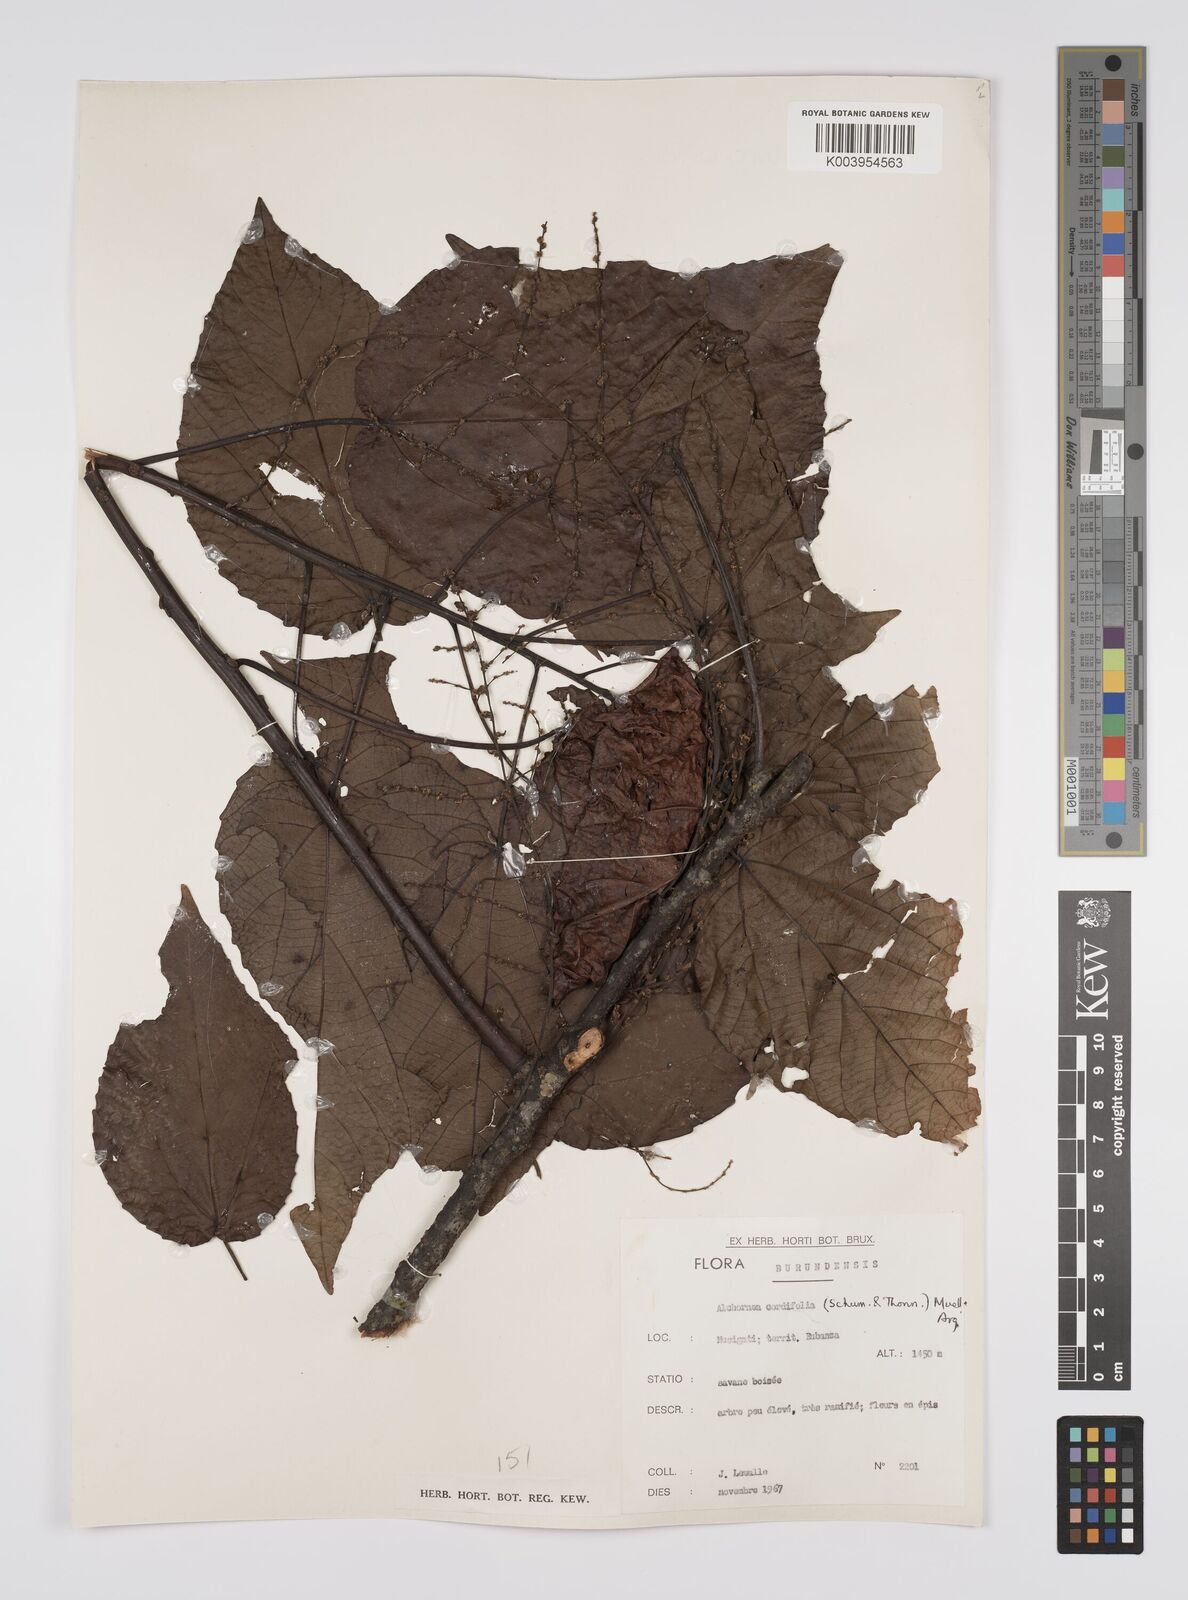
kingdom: Plantae
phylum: Tracheophyta
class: Magnoliopsida
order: Malpighiales
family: Euphorbiaceae
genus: Alchornea
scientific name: Alchornea cordifolia
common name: Christmasbush
